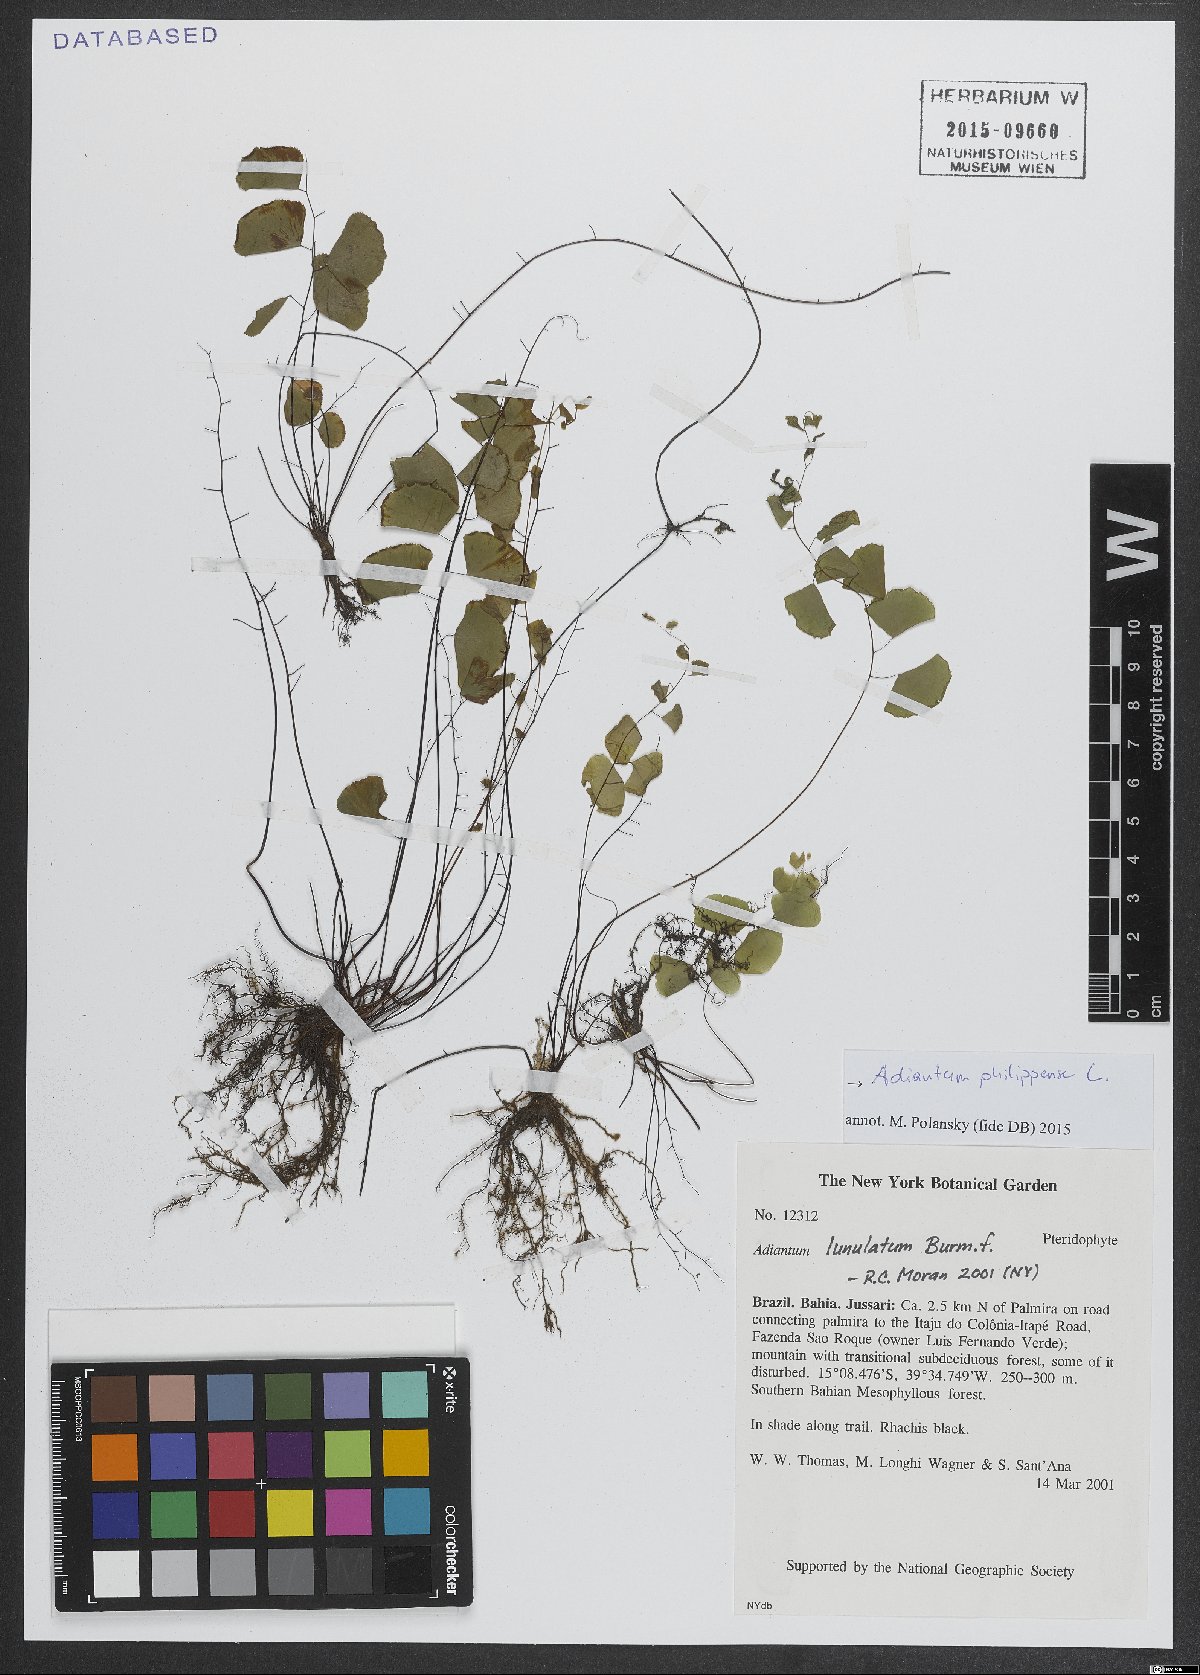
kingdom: Plantae
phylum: Tracheophyta
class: Polypodiopsida
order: Polypodiales
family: Pteridaceae
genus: Adiantum
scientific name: Adiantum philippense
